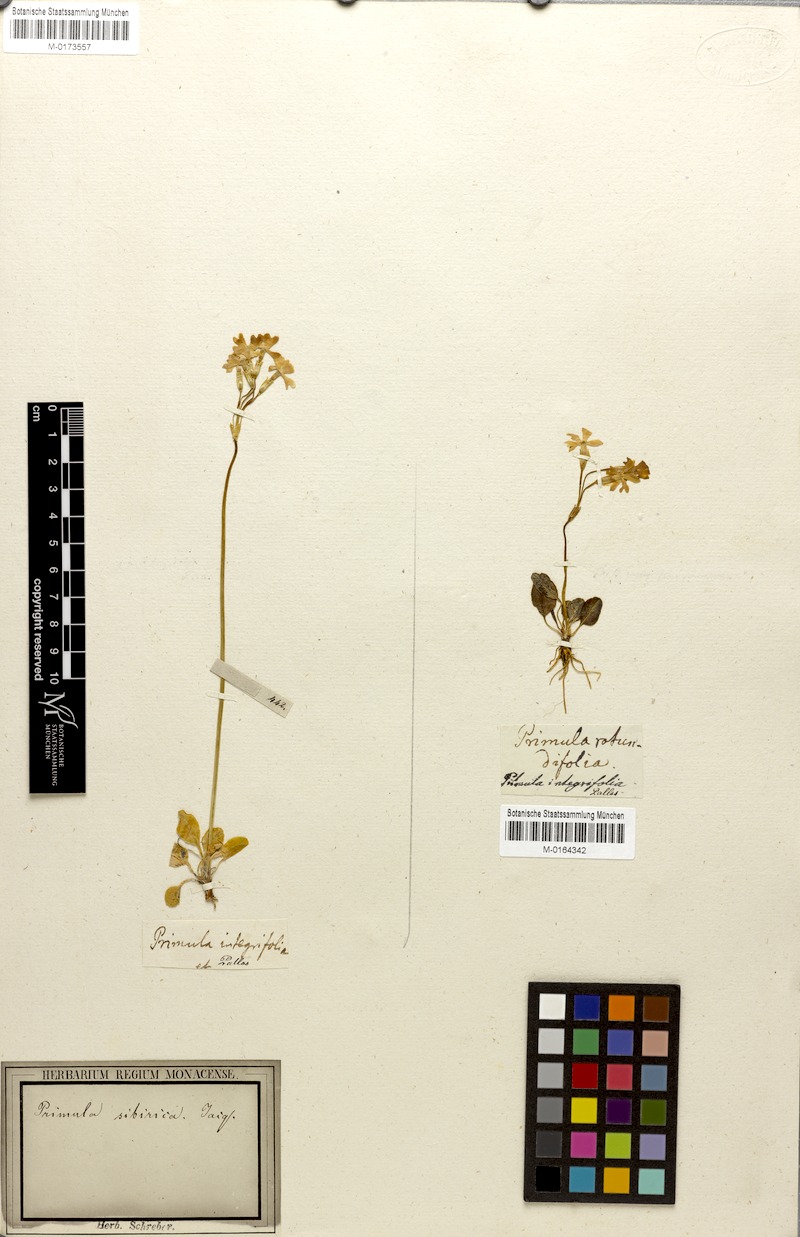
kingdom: Plantae
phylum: Tracheophyta
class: Magnoliopsida
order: Ericales
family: Primulaceae
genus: Primula
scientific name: Primula nutans
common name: Siberian primrose
